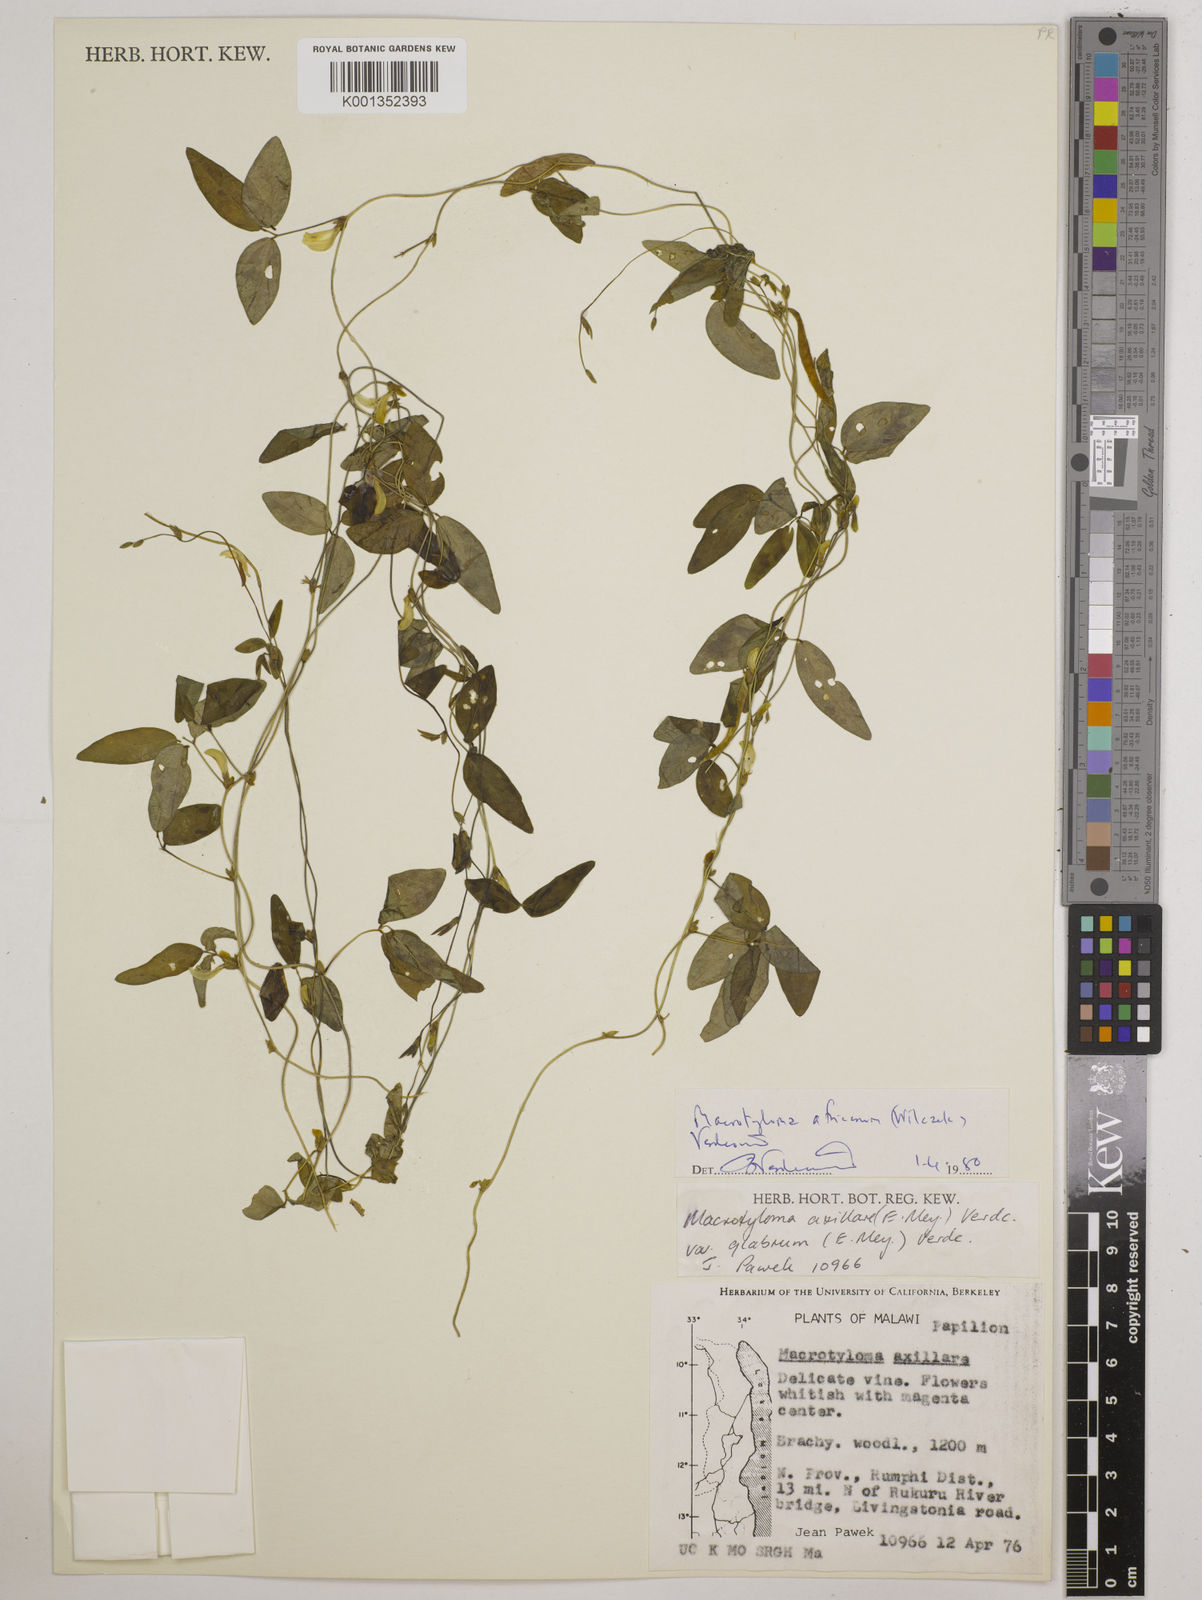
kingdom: Plantae
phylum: Tracheophyta
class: Magnoliopsida
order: Fabales
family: Fabaceae
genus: Macrotyloma
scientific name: Macrotyloma africanum
